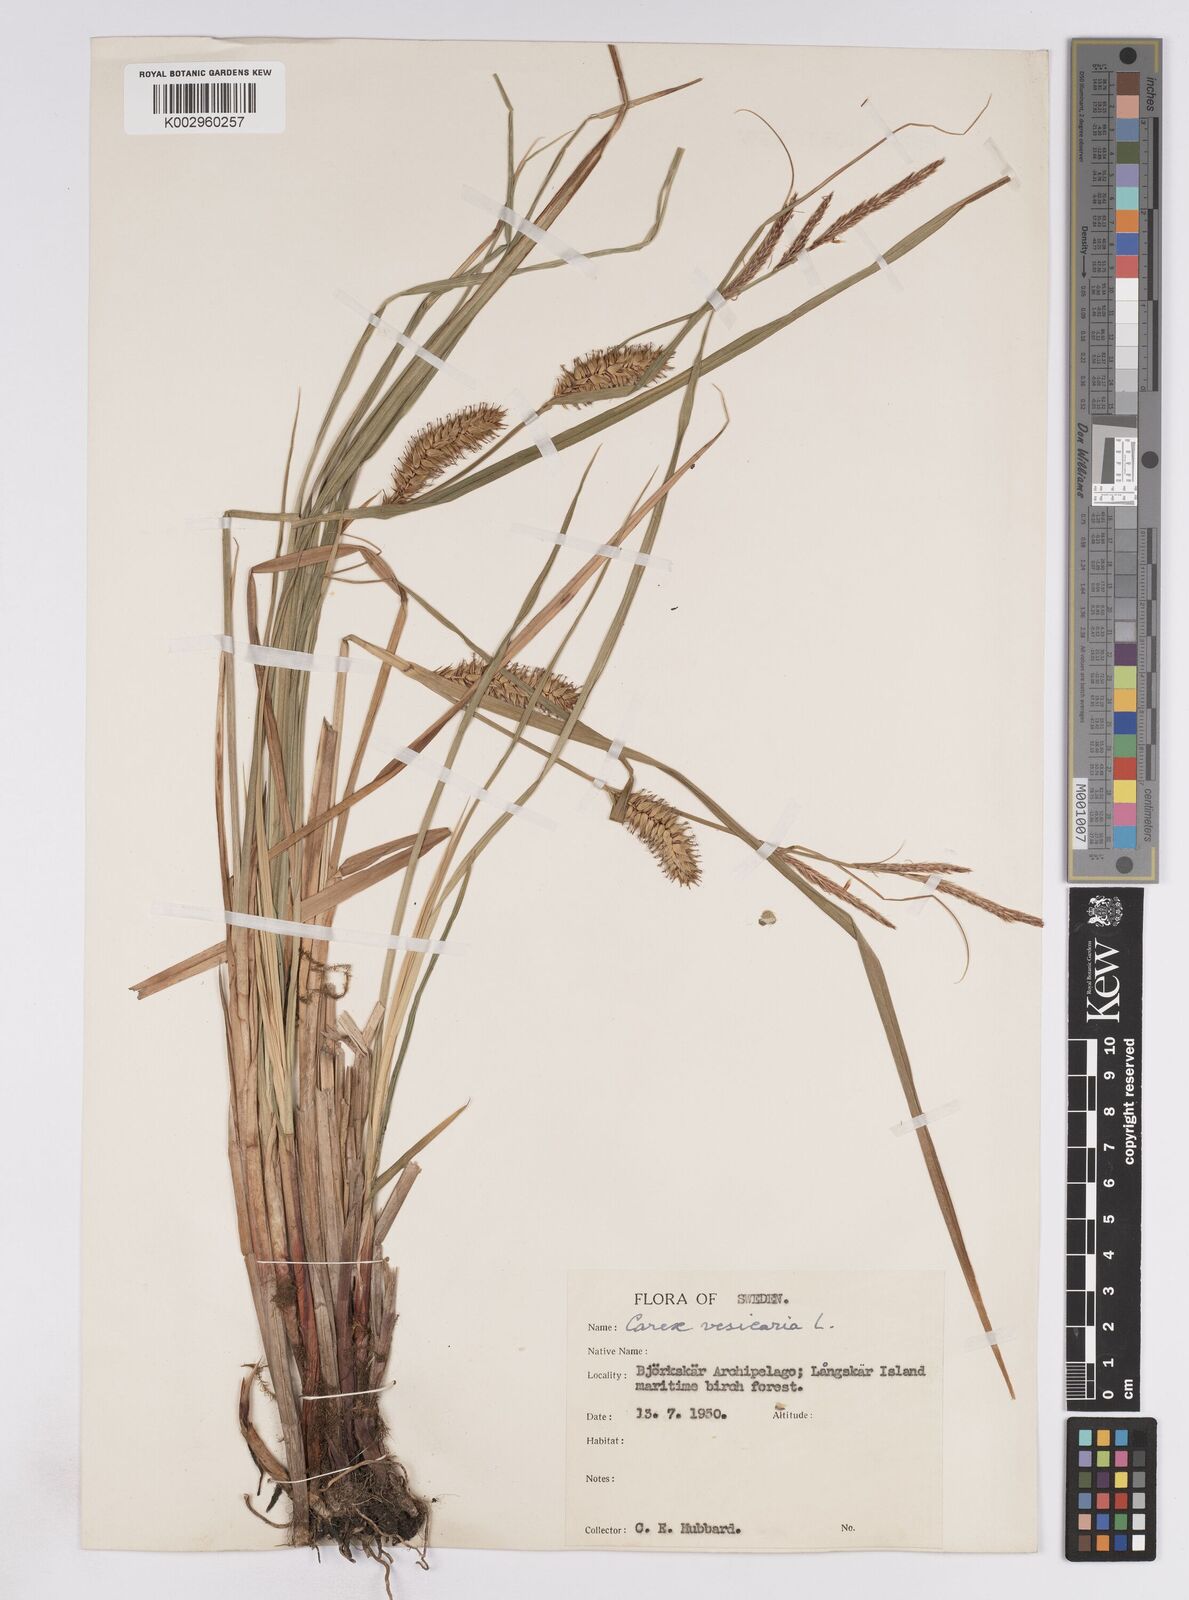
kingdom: Plantae
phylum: Tracheophyta
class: Liliopsida
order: Poales
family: Cyperaceae
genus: Carex
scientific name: Carex vesicaria
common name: Bladder-sedge
